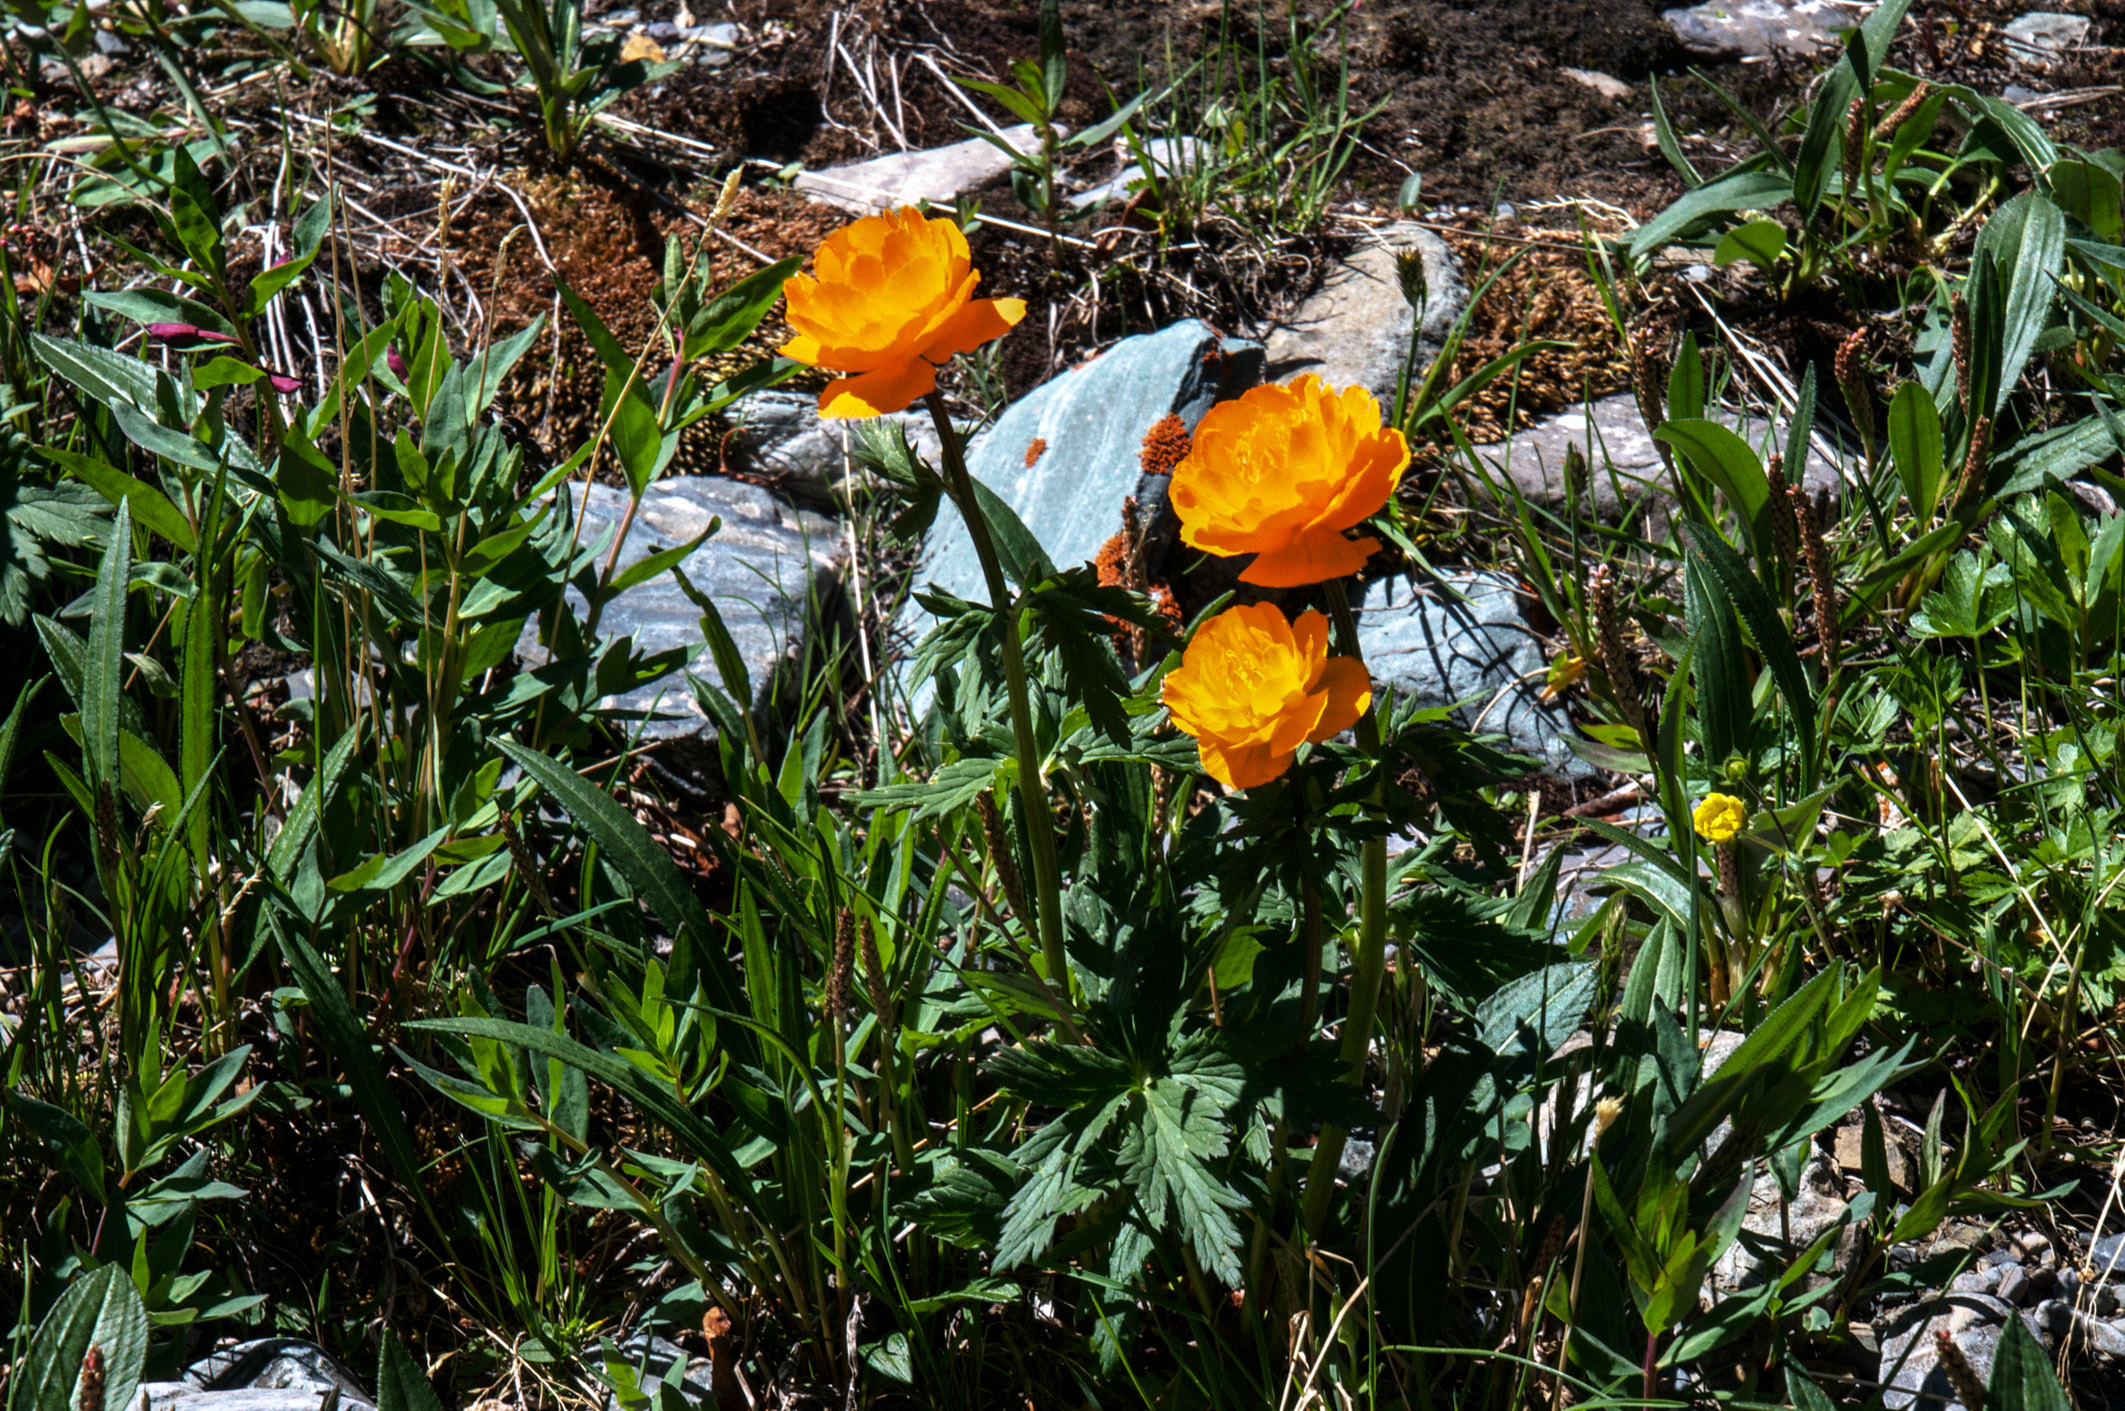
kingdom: Plantae
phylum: Tracheophyta
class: Magnoliopsida
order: Ranunculales
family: Ranunculaceae
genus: Trollius
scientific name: Trollius altaicus
